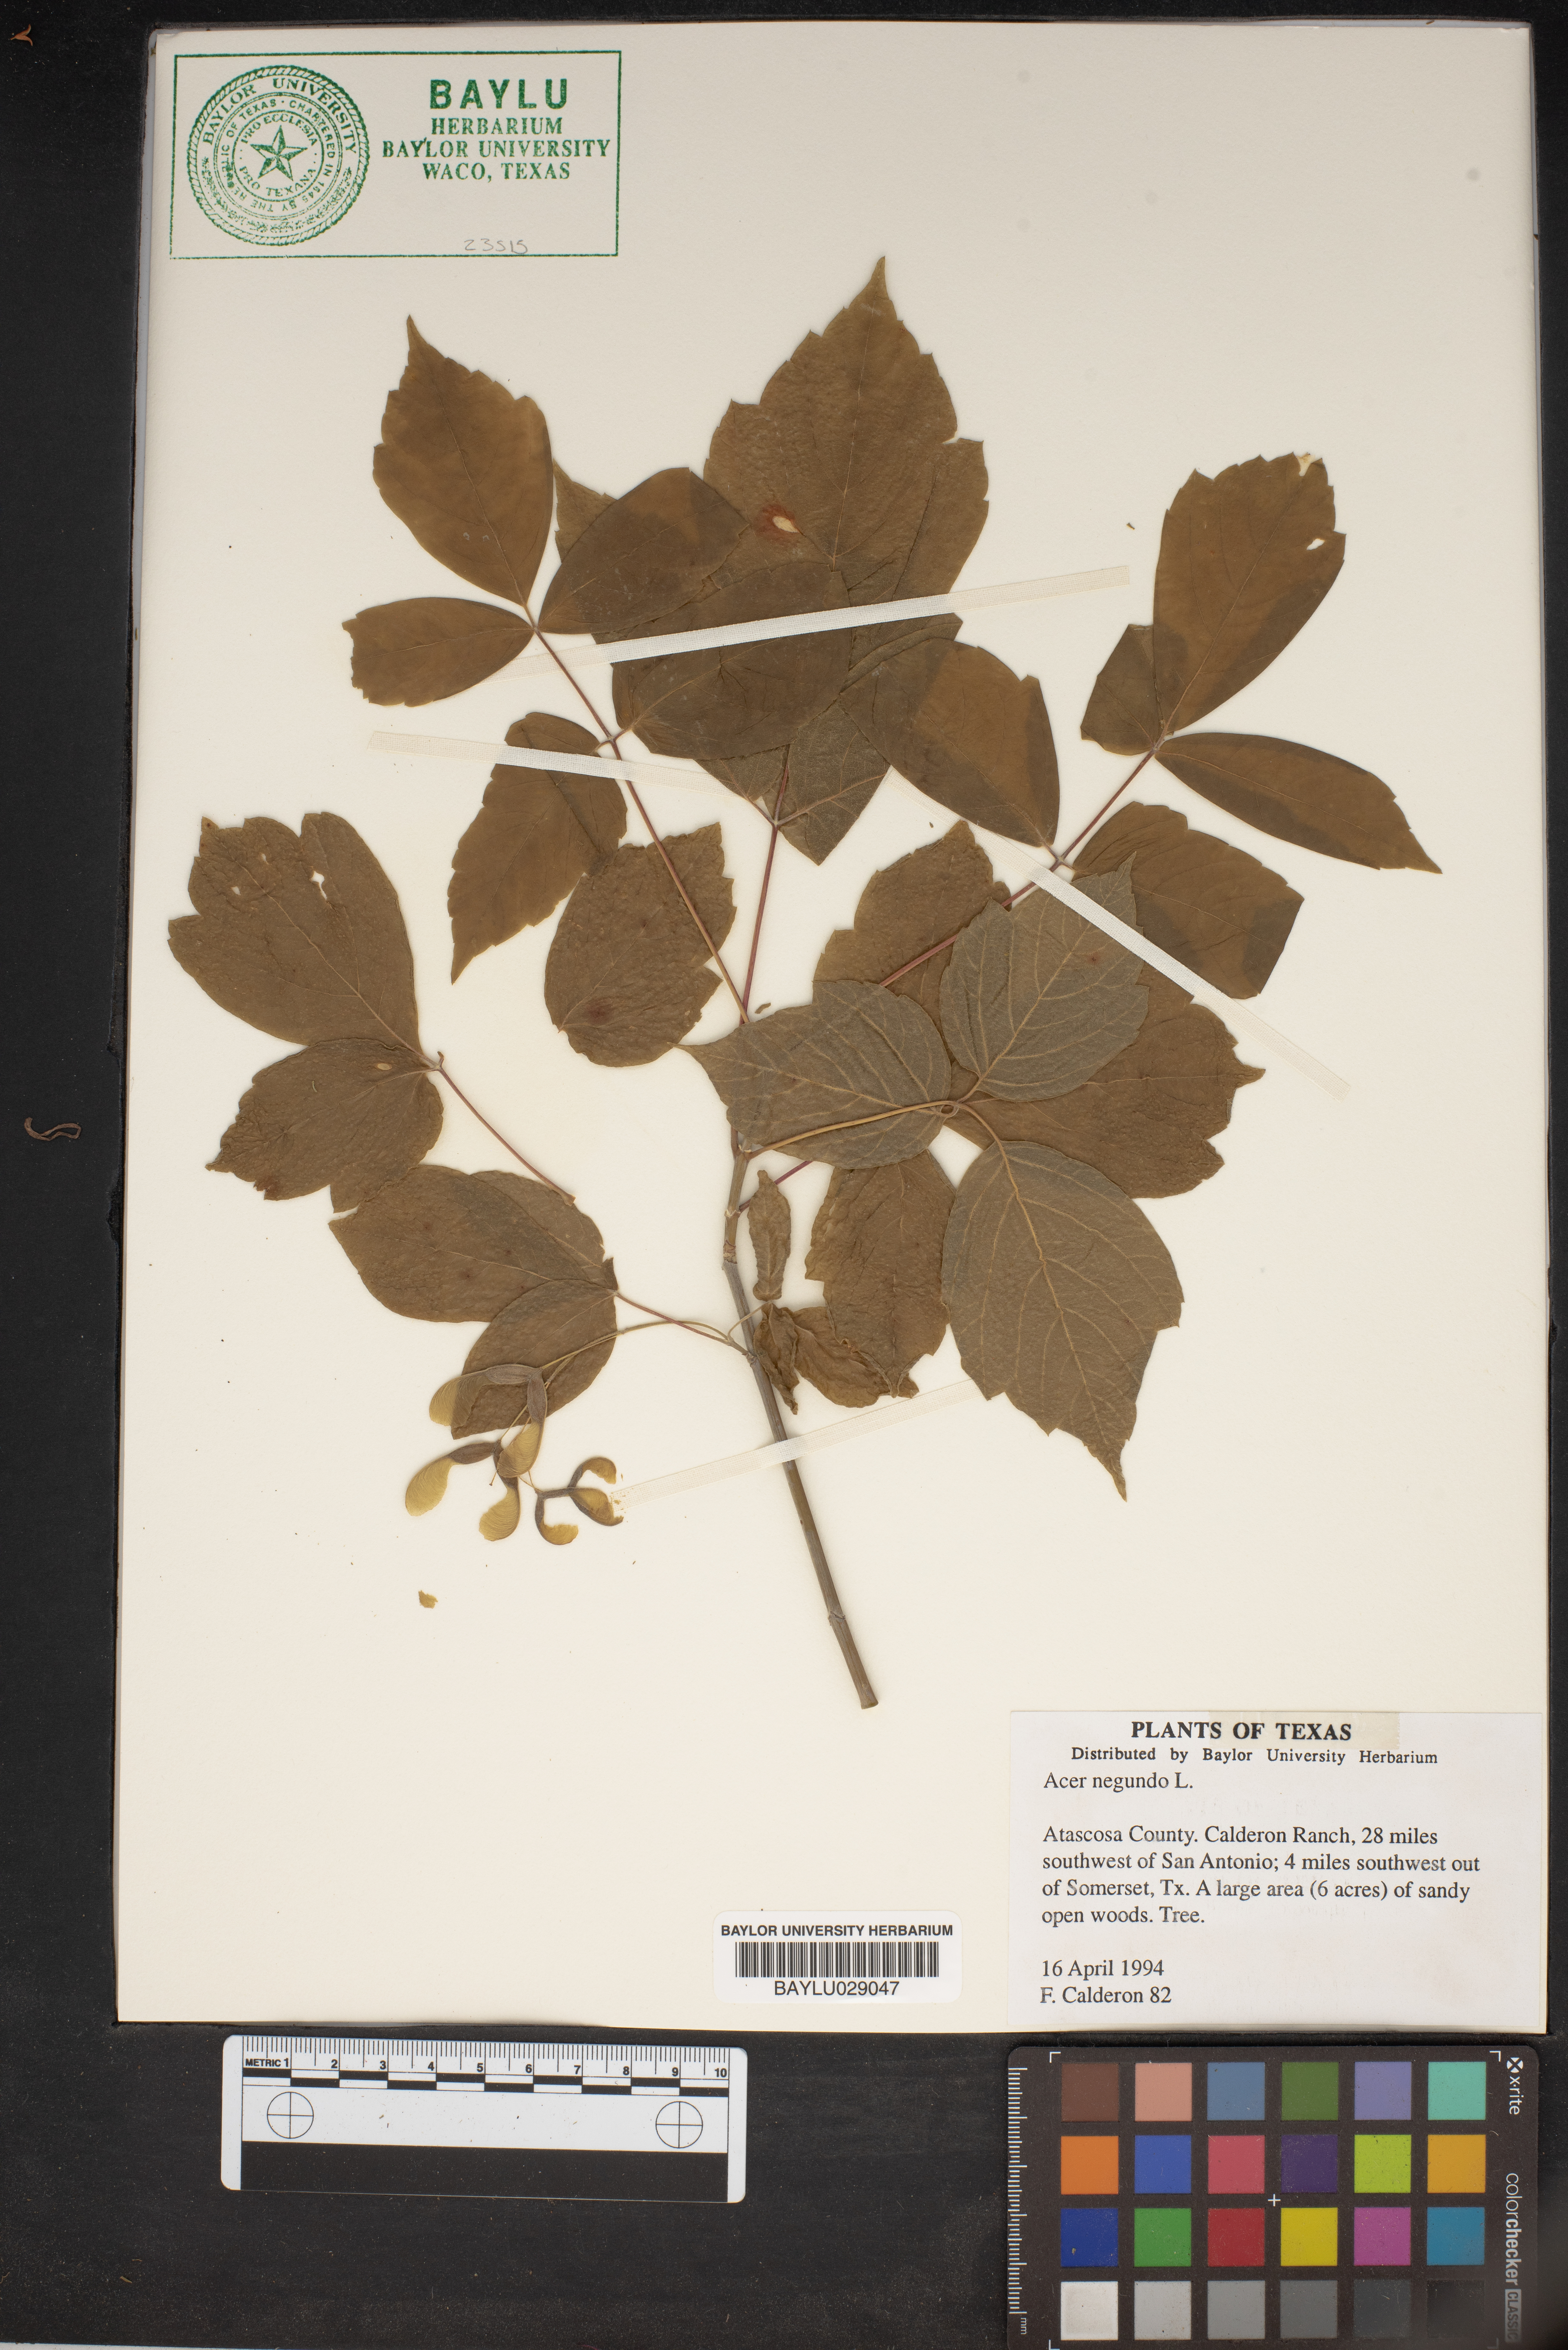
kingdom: Plantae
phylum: Tracheophyta
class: Magnoliopsida
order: Sapindales
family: Sapindaceae
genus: Acer
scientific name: Acer negundo
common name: Ashleaf maple
